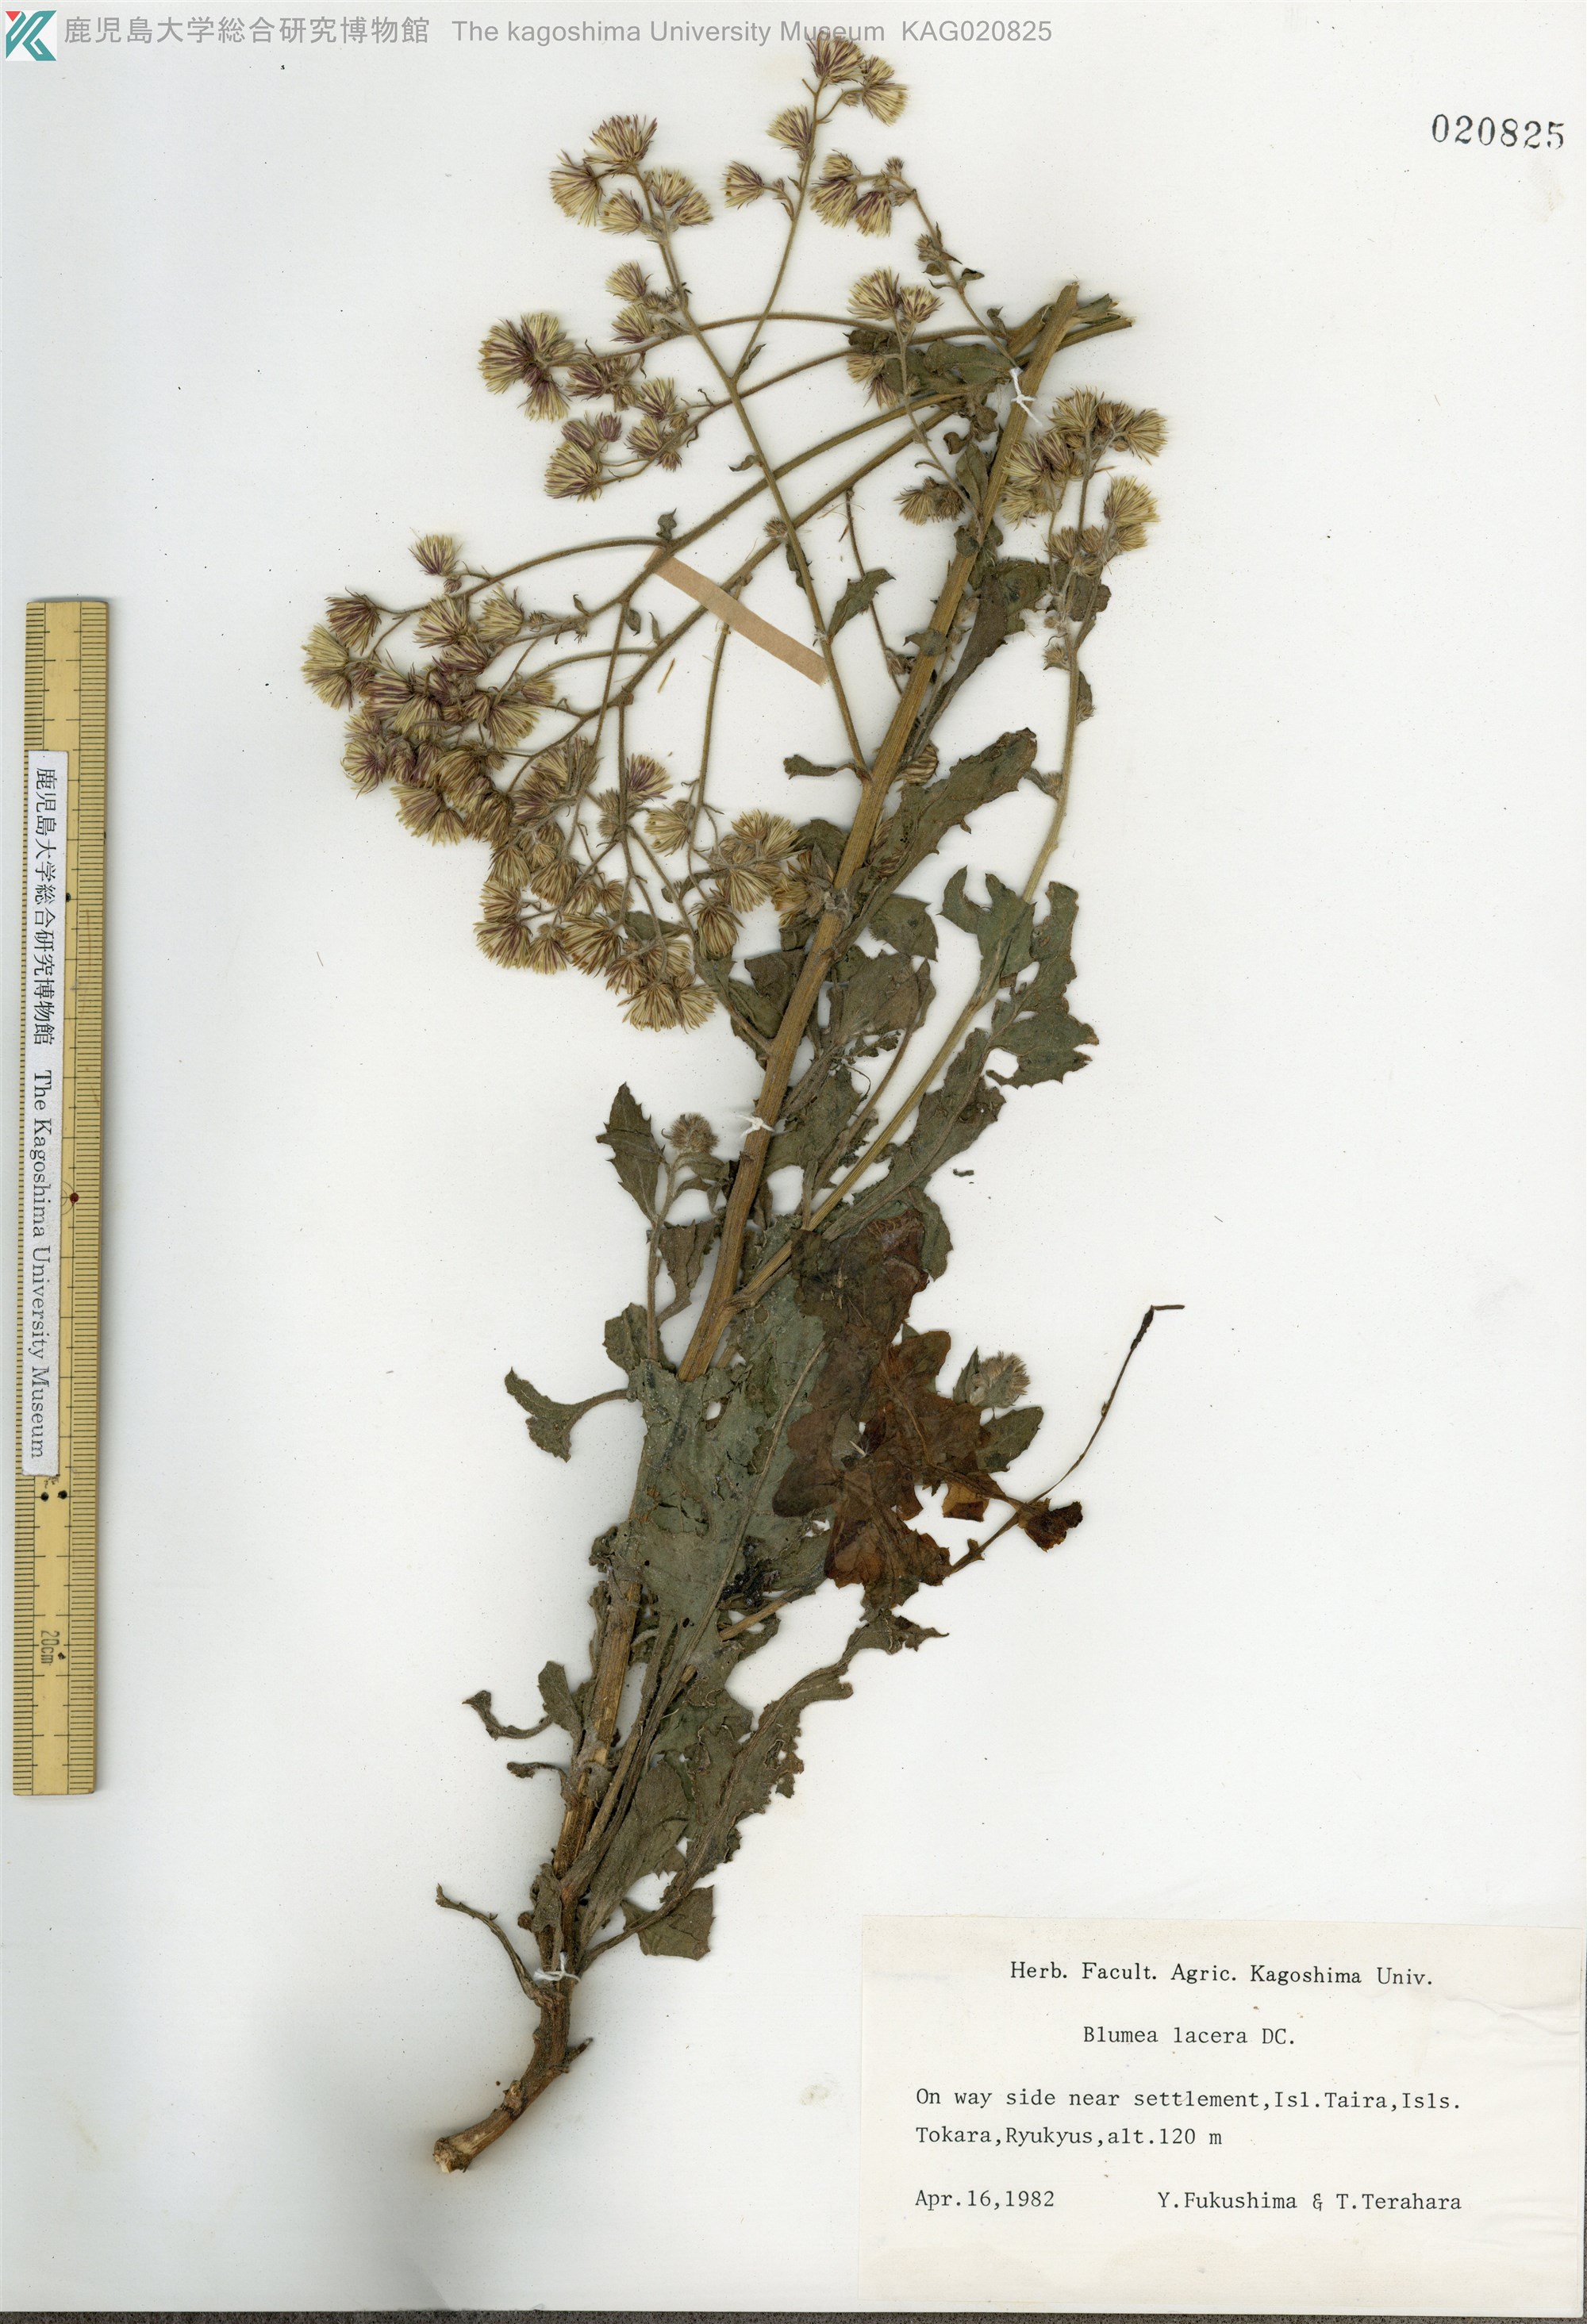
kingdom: Plantae
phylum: Tracheophyta
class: Magnoliopsida
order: Asterales
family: Asteraceae
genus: Blumea
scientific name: Blumea sinuata
